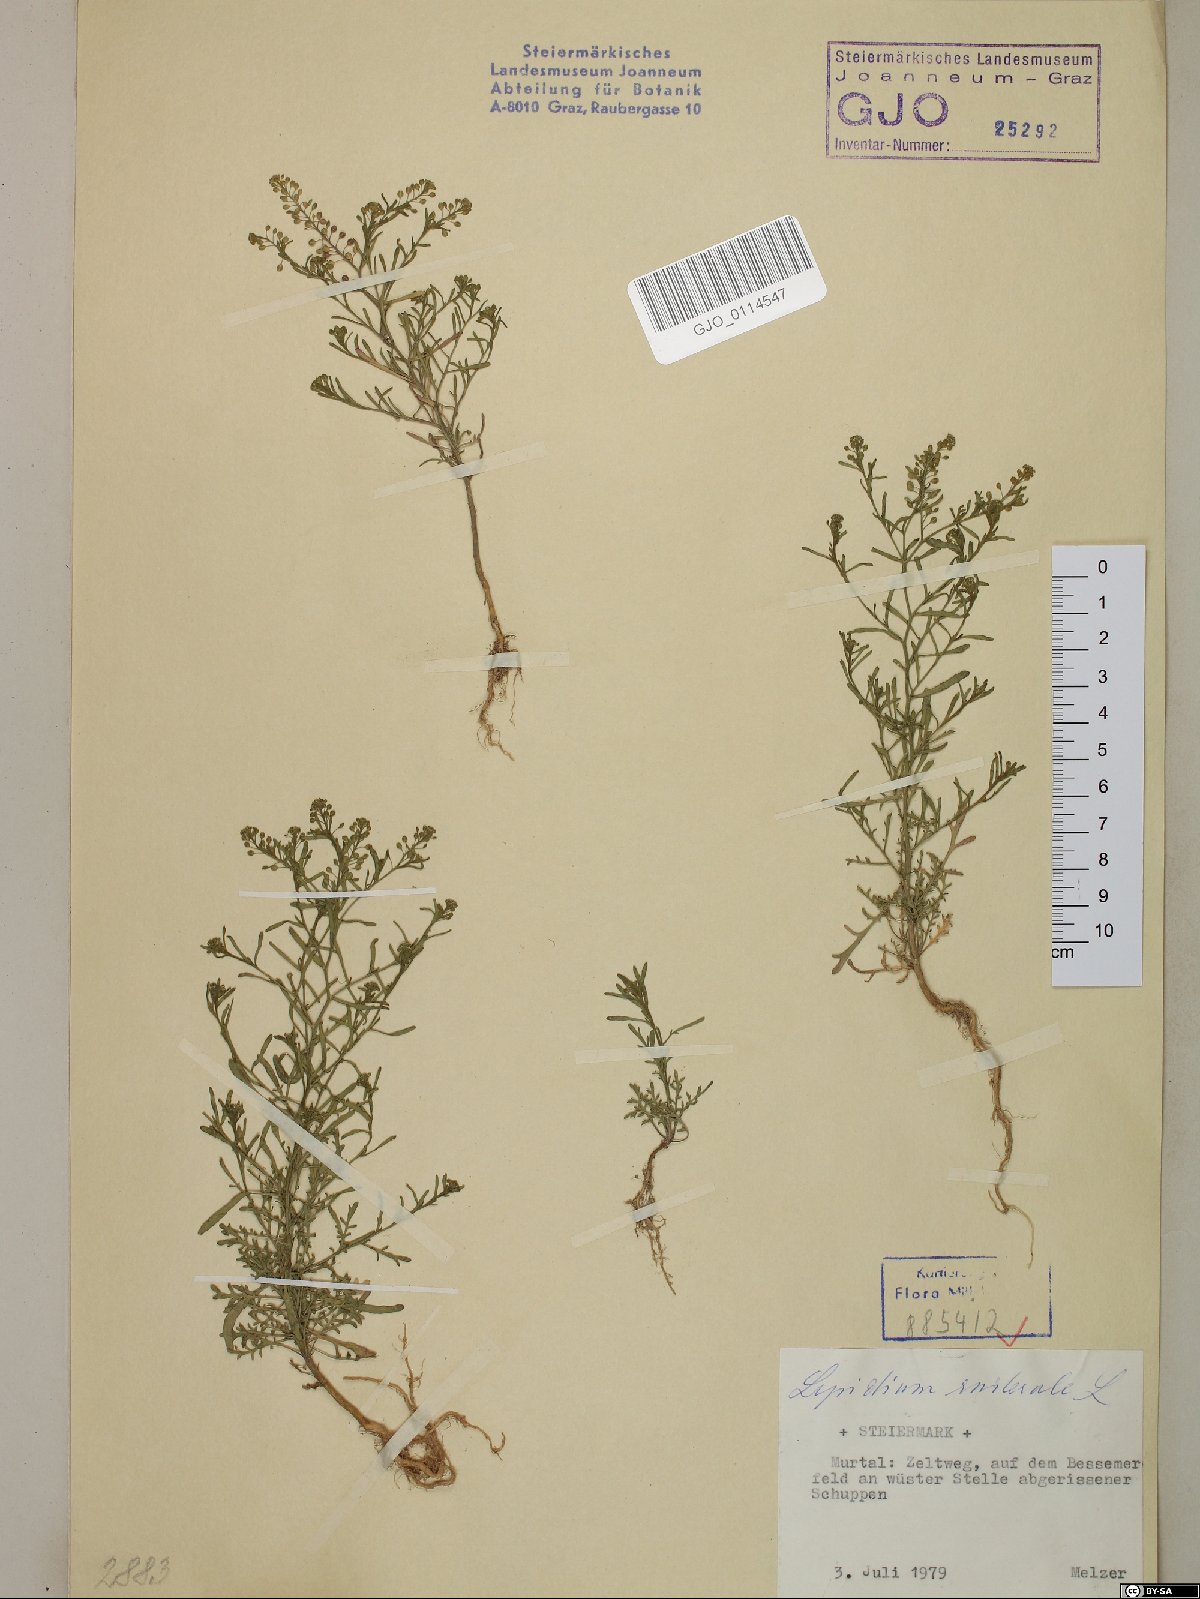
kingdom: Plantae
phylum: Tracheophyta
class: Magnoliopsida
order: Brassicales
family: Brassicaceae
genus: Lepidium
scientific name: Lepidium ruderale
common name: Narrow-leaved pepperwort
